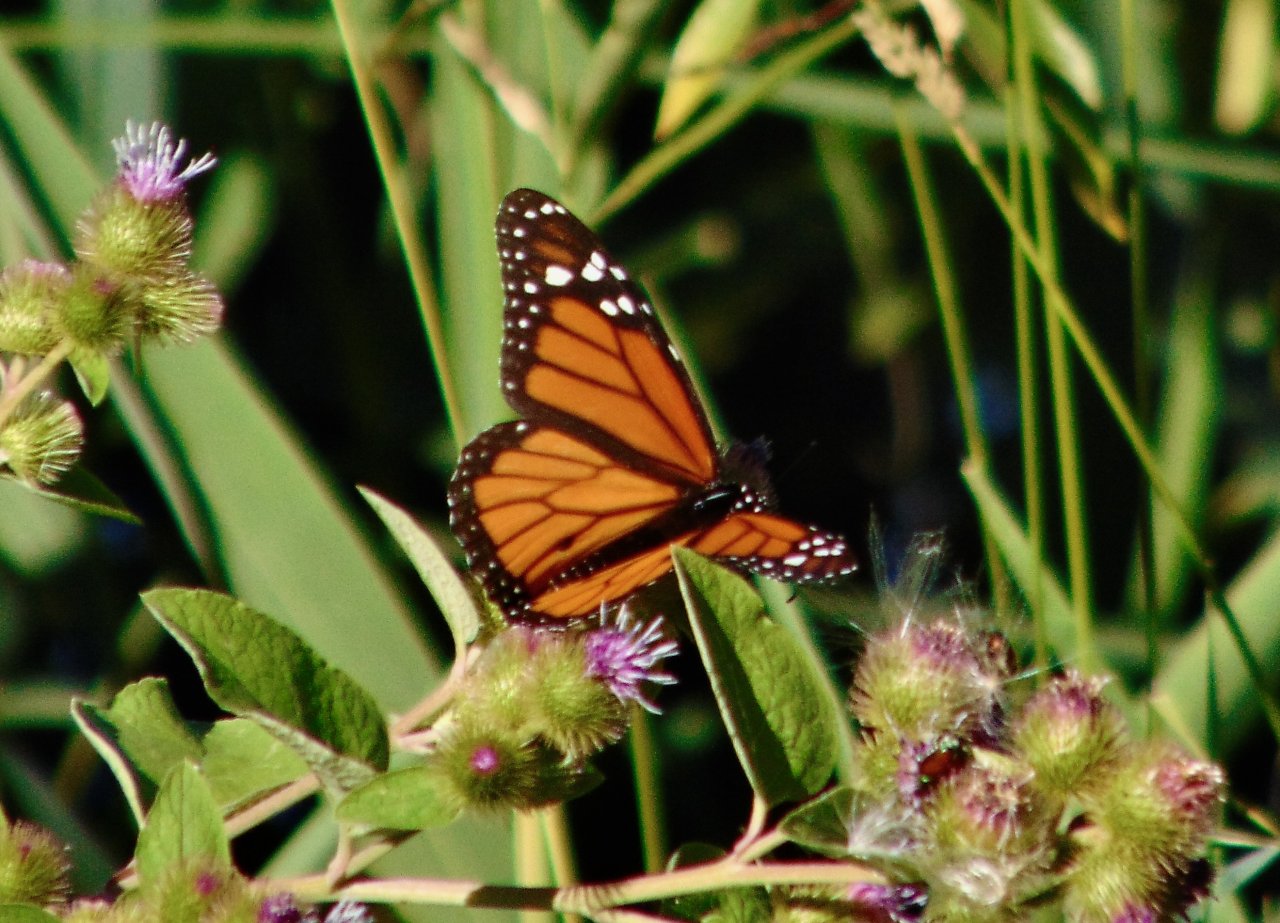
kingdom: Animalia
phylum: Arthropoda
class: Insecta
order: Lepidoptera
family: Nymphalidae
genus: Danaus
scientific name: Danaus plexippus
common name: Monarch
